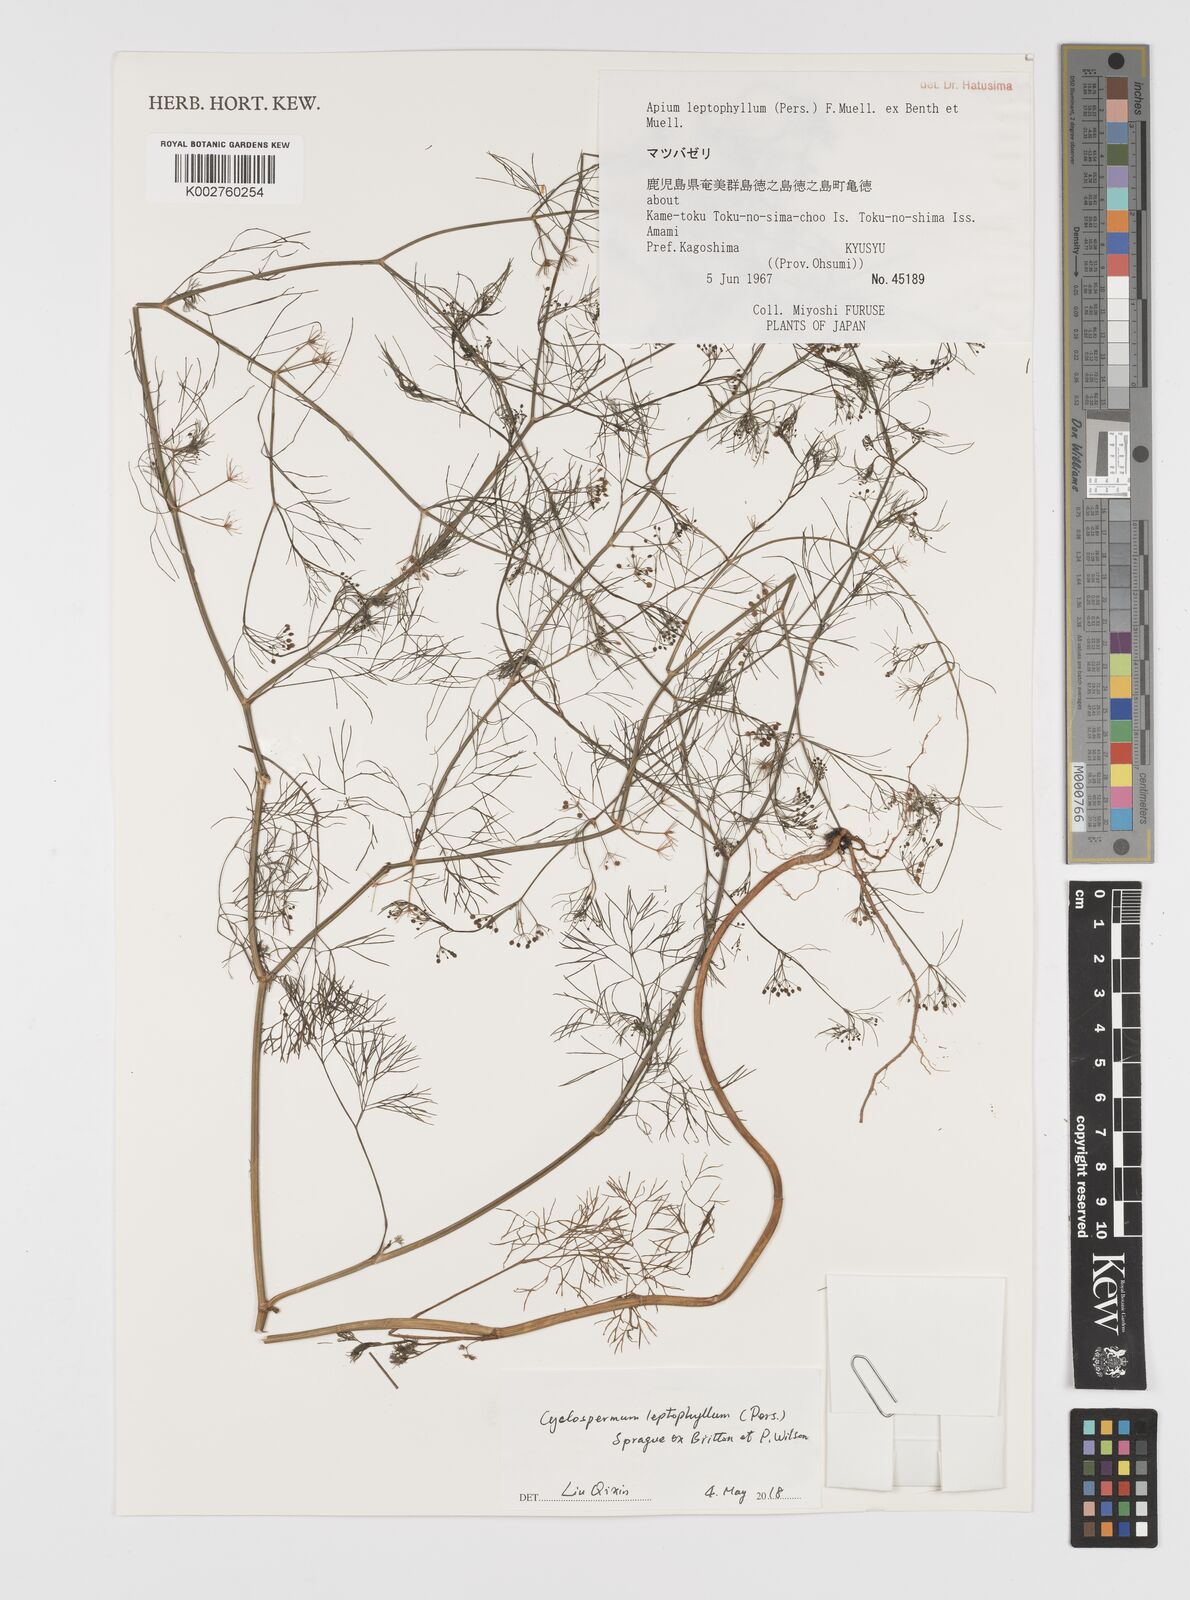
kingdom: Plantae
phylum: Tracheophyta
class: Magnoliopsida
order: Apiales
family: Apiaceae
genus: Cyclospermum
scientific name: Cyclospermum leptophyllum
